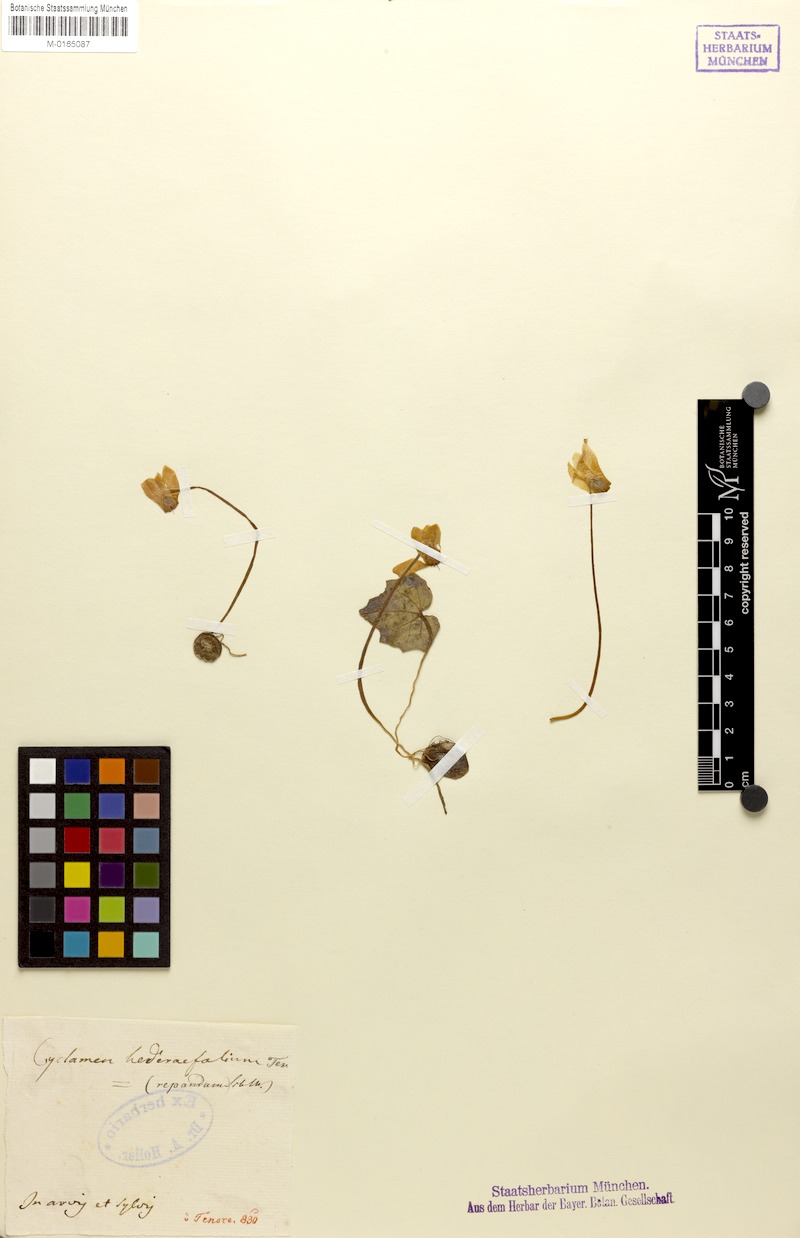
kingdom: Plantae
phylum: Tracheophyta
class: Magnoliopsida
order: Ericales
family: Primulaceae
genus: Cyclamen
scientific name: Cyclamen repandum
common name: Spring sowbread
